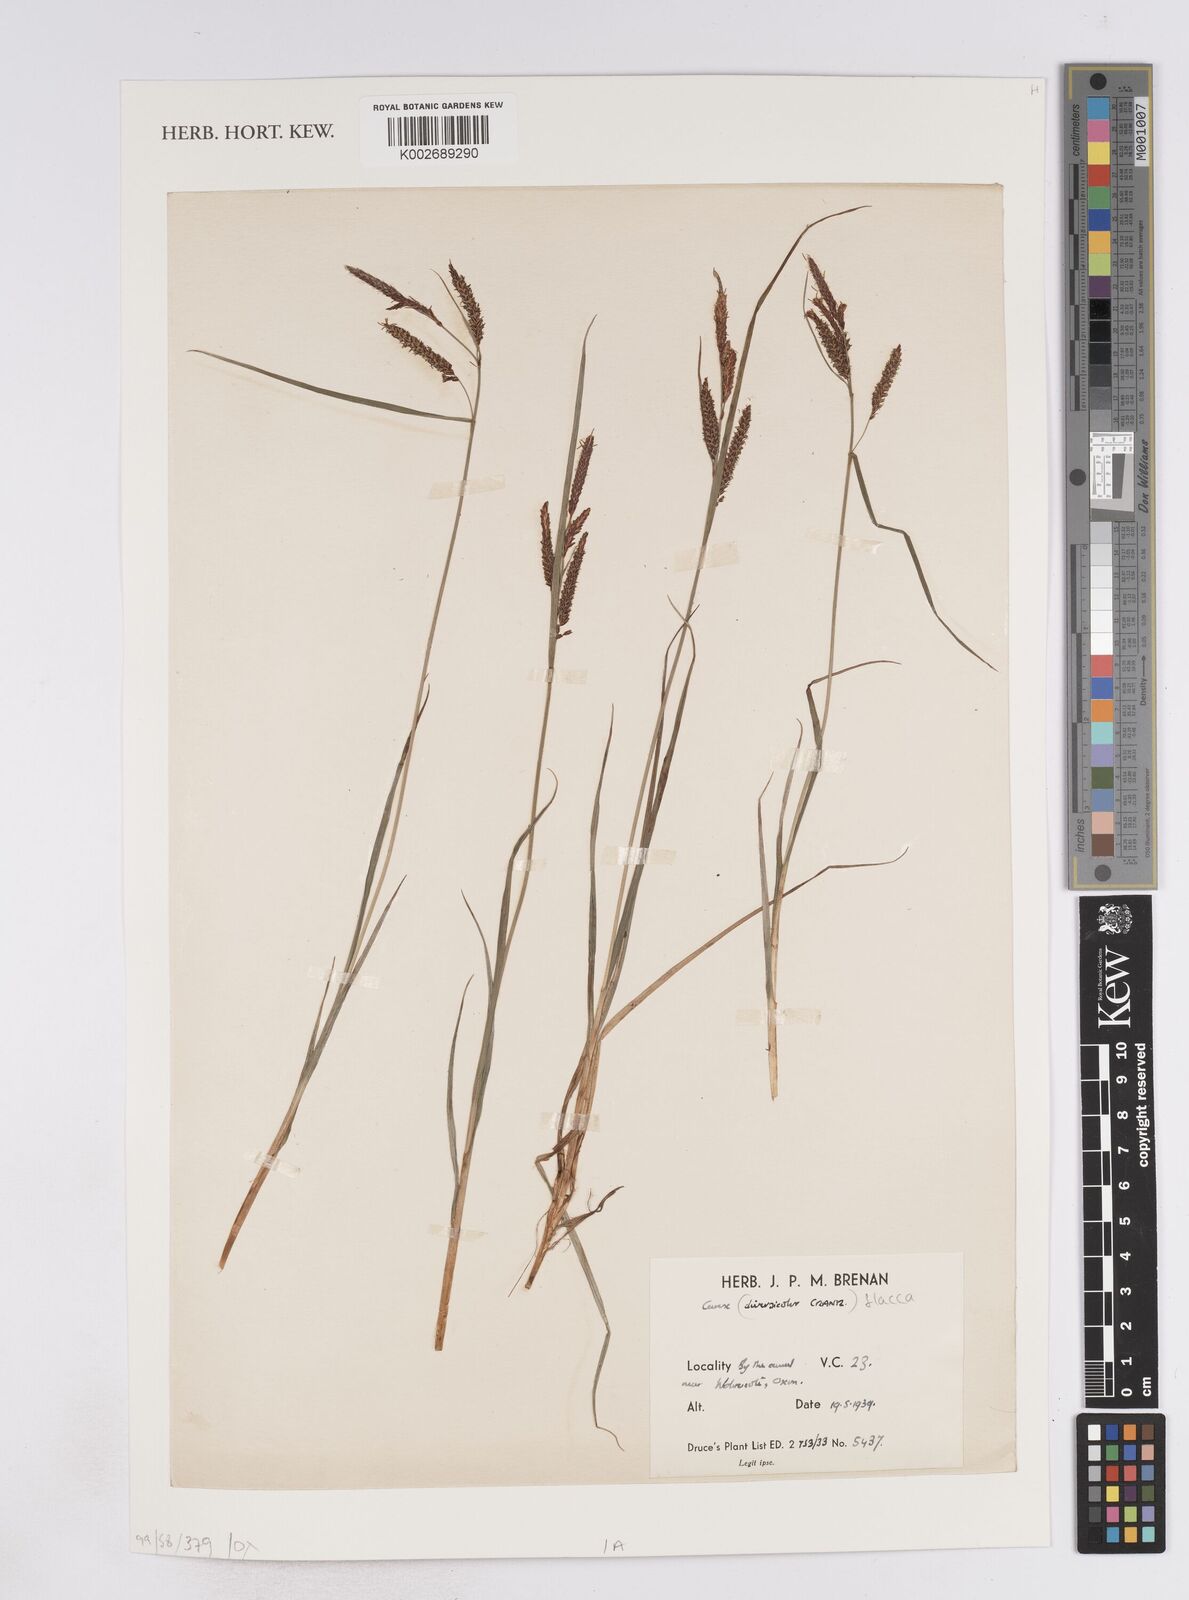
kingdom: Plantae
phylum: Tracheophyta
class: Liliopsida
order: Poales
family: Cyperaceae
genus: Carex
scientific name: Carex flacca
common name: Glaucous sedge
